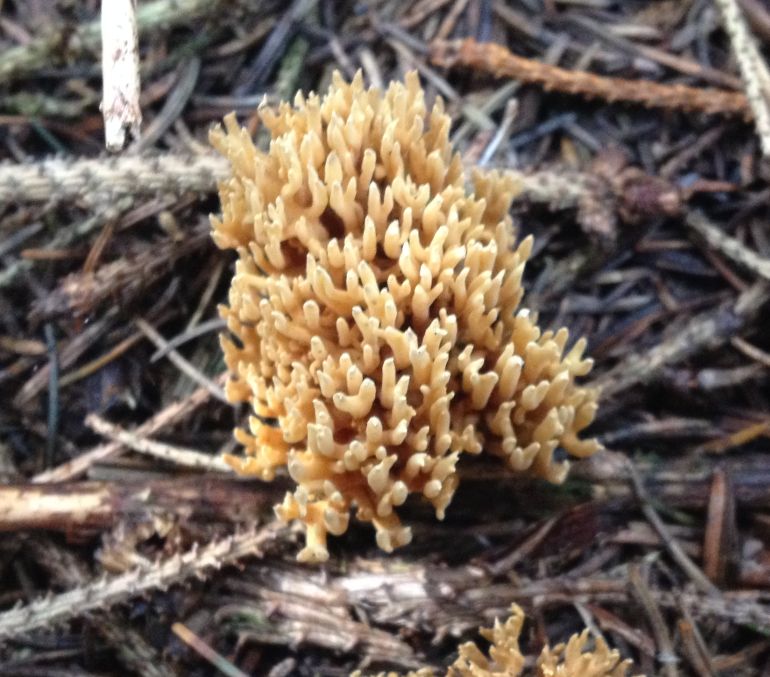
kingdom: Fungi
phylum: Basidiomycota
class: Agaricomycetes
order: Gomphales
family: Gomphaceae
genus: Phaeoclavulina
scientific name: Phaeoclavulina eumorpha
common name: gran-koralsvamp
